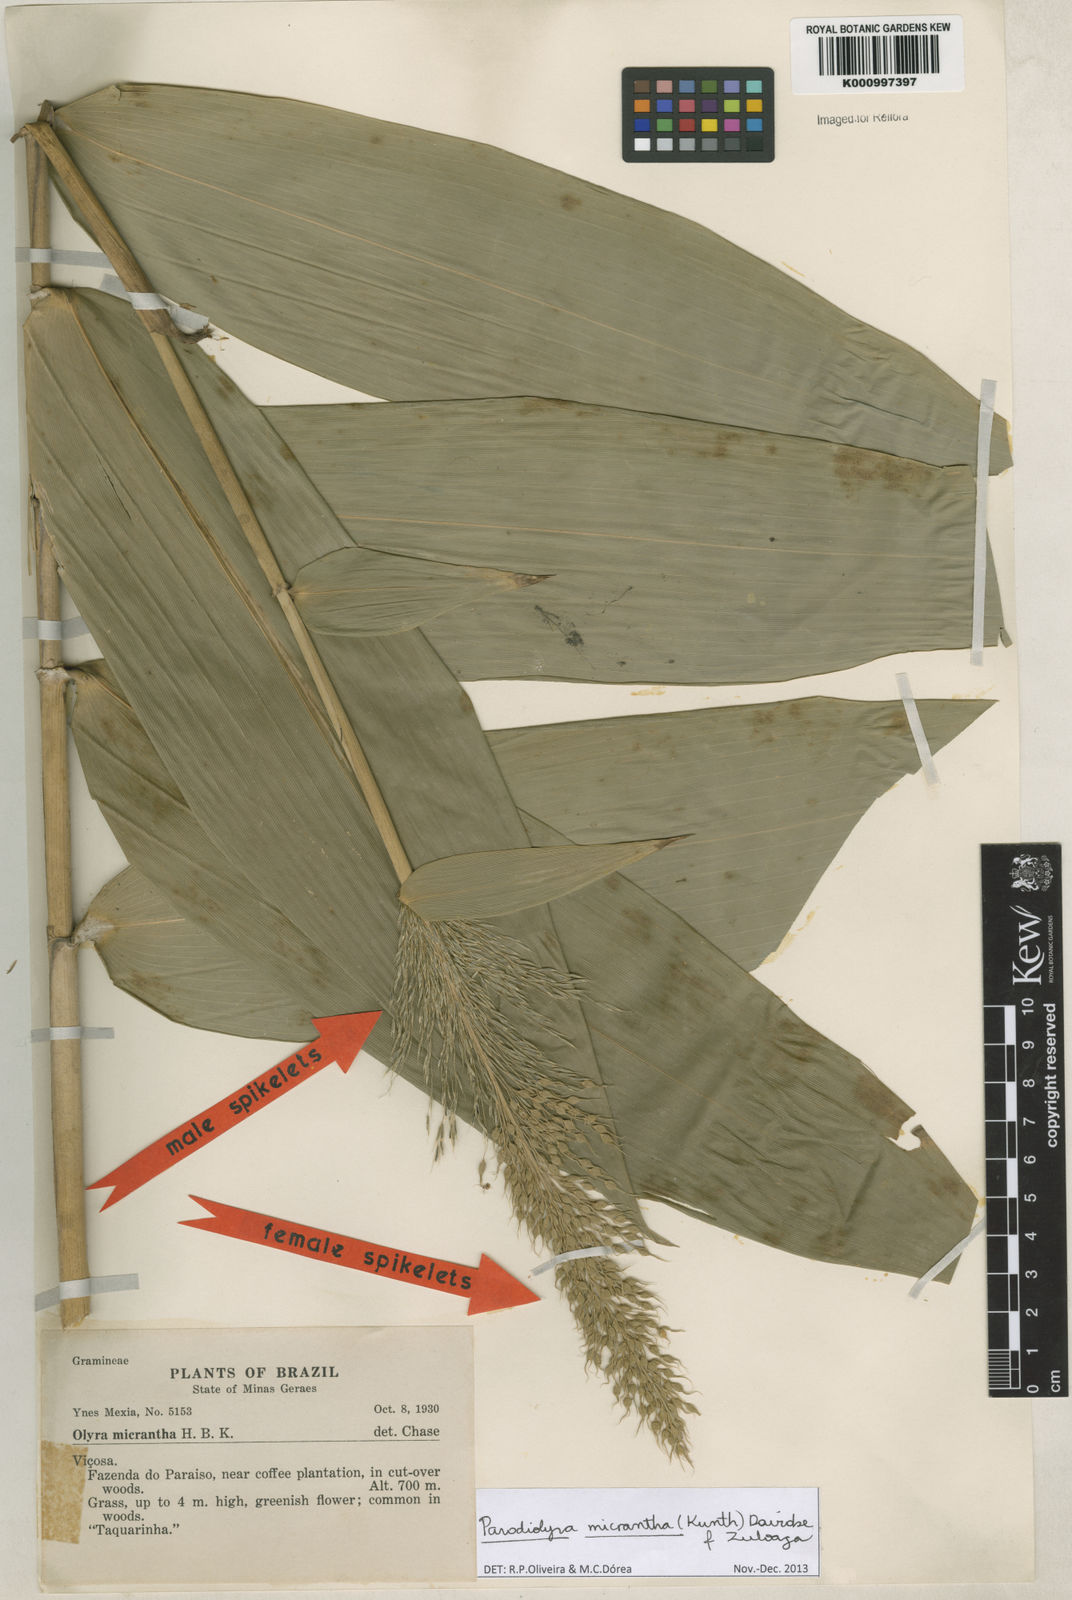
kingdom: Plantae
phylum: Tracheophyta
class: Liliopsida
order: Poales
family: Poaceae
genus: Taquara
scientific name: Taquara micrantha
